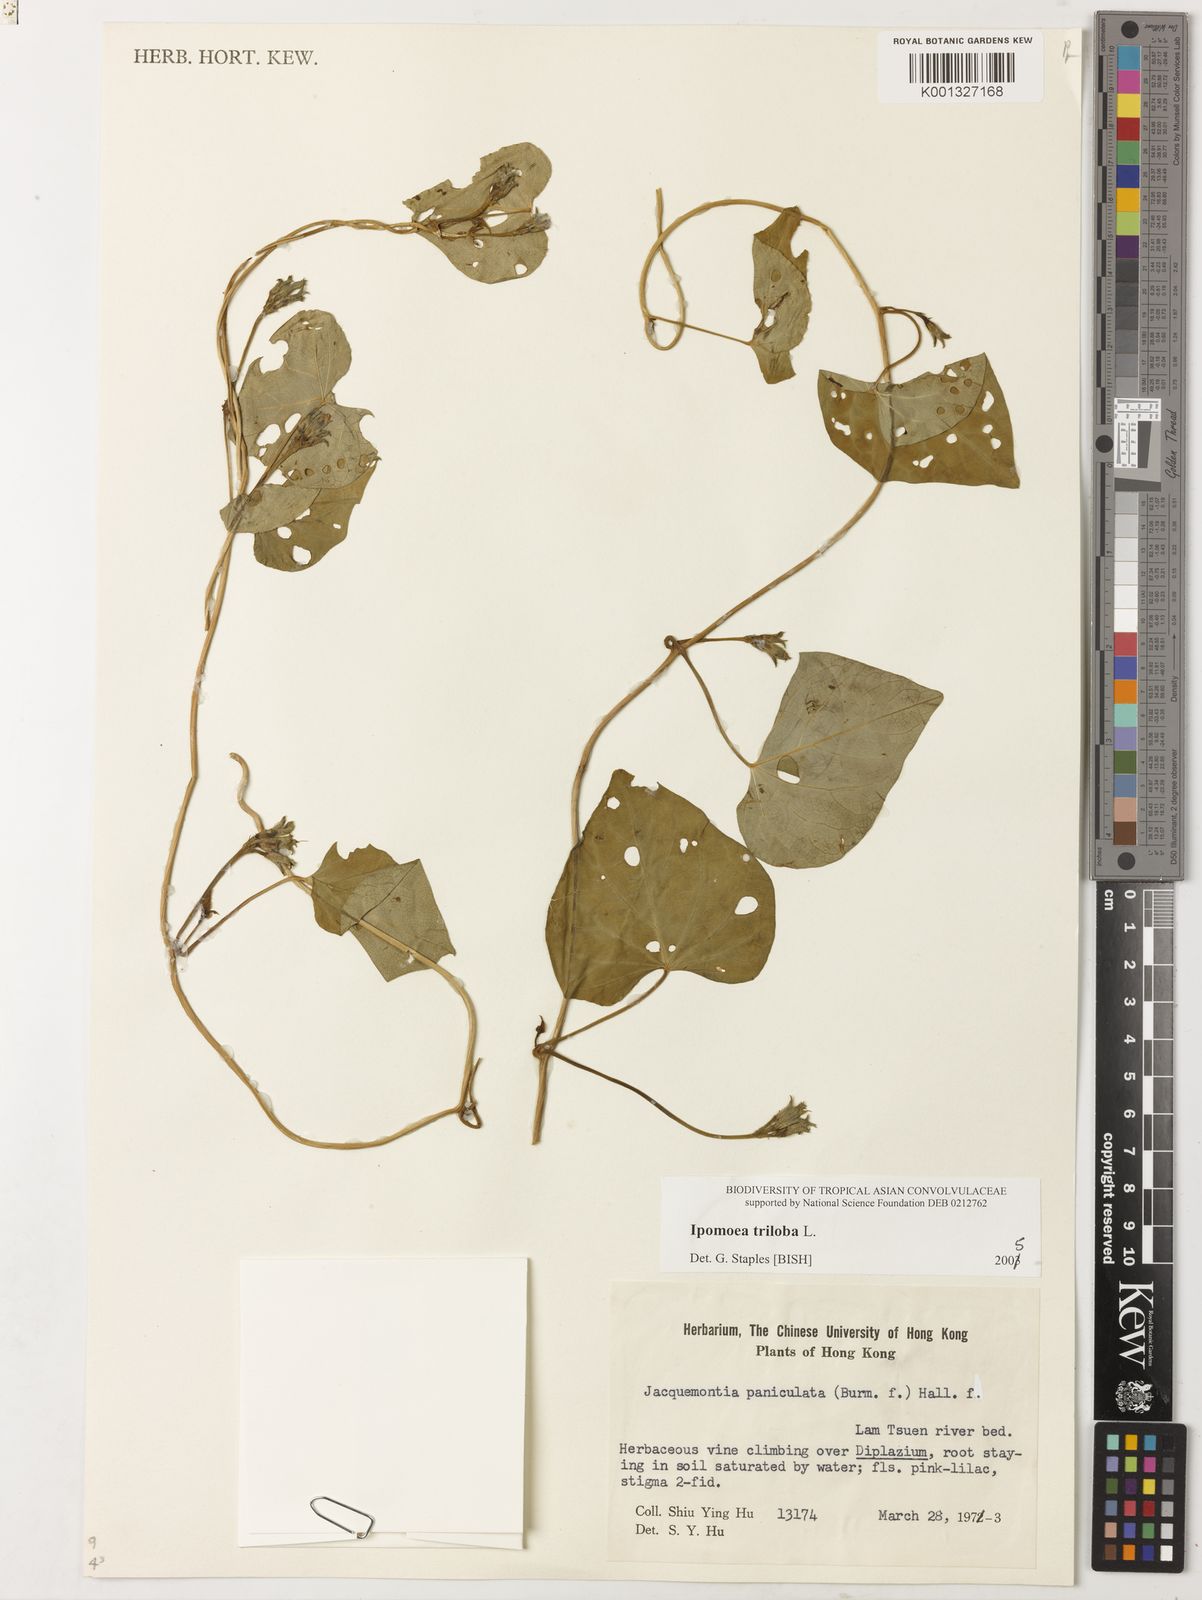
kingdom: Plantae
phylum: Tracheophyta
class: Magnoliopsida
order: Solanales
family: Convolvulaceae
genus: Ipomoea
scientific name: Ipomoea triloba
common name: Little-bell
